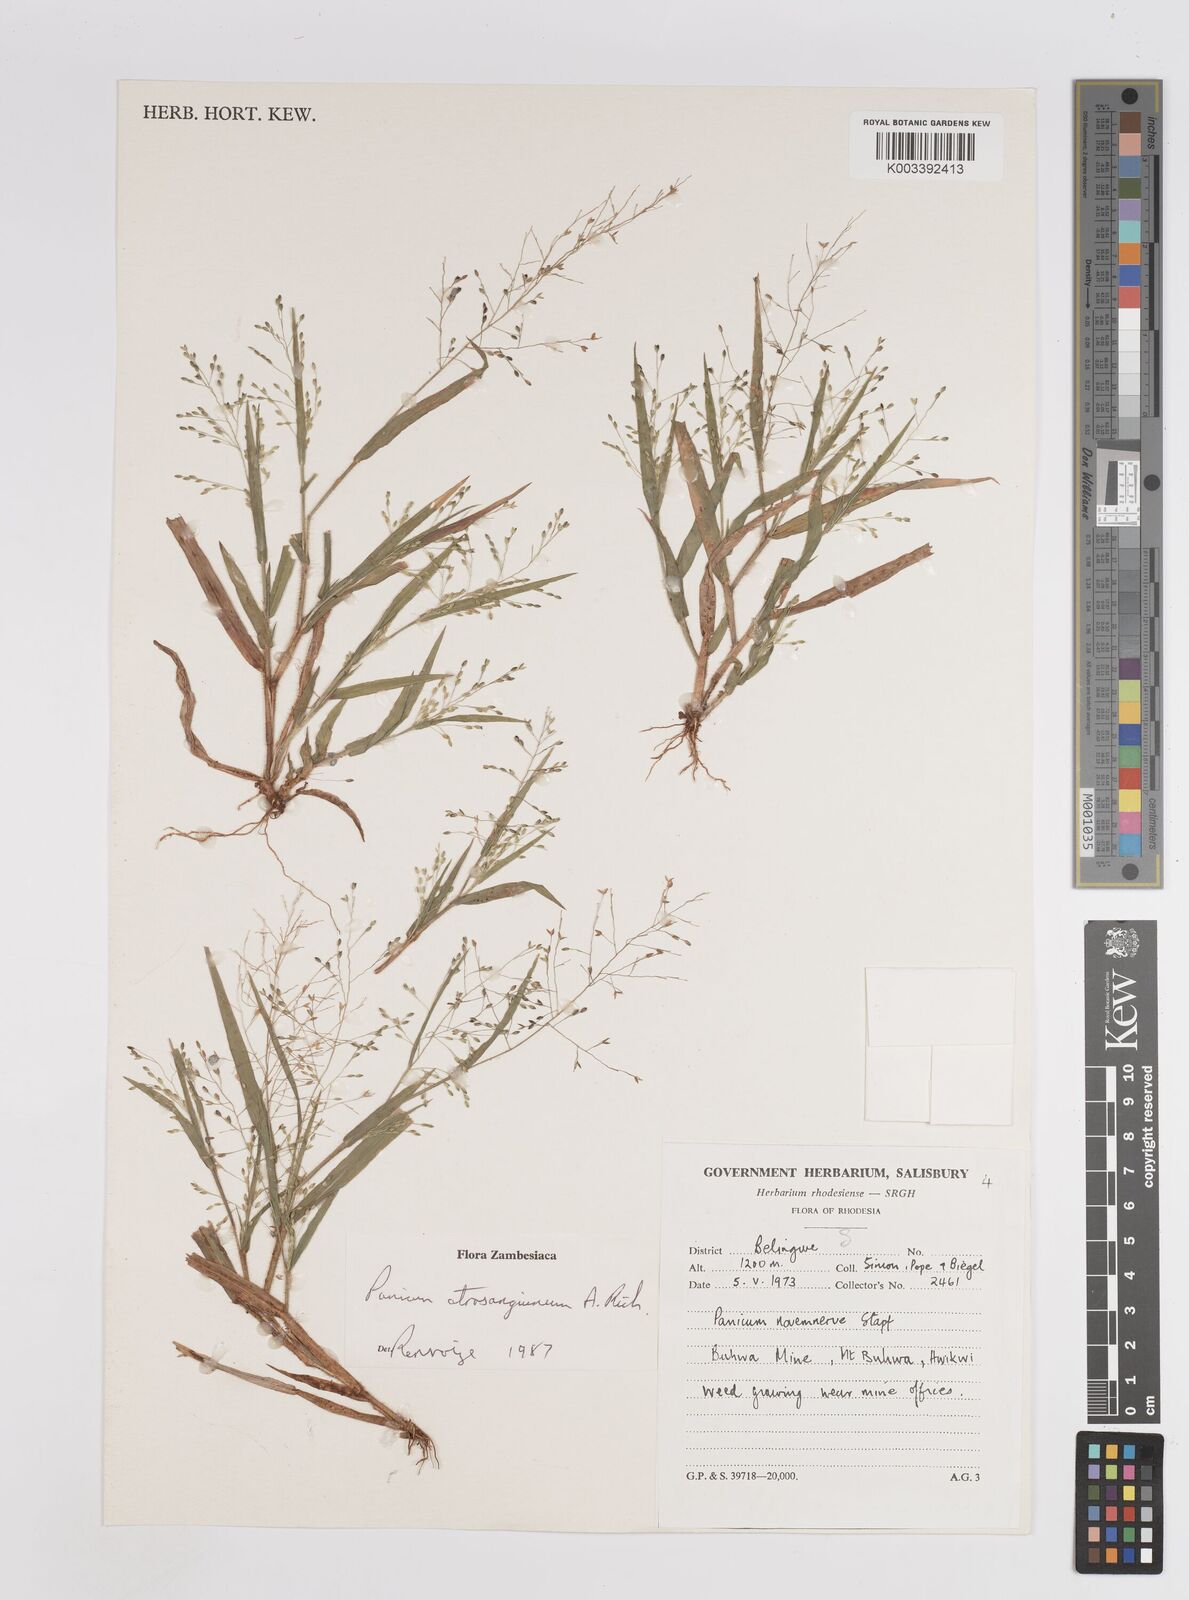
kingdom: Plantae
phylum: Tracheophyta
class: Liliopsida
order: Poales
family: Poaceae
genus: Panicum
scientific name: Panicum atrosanguineum
